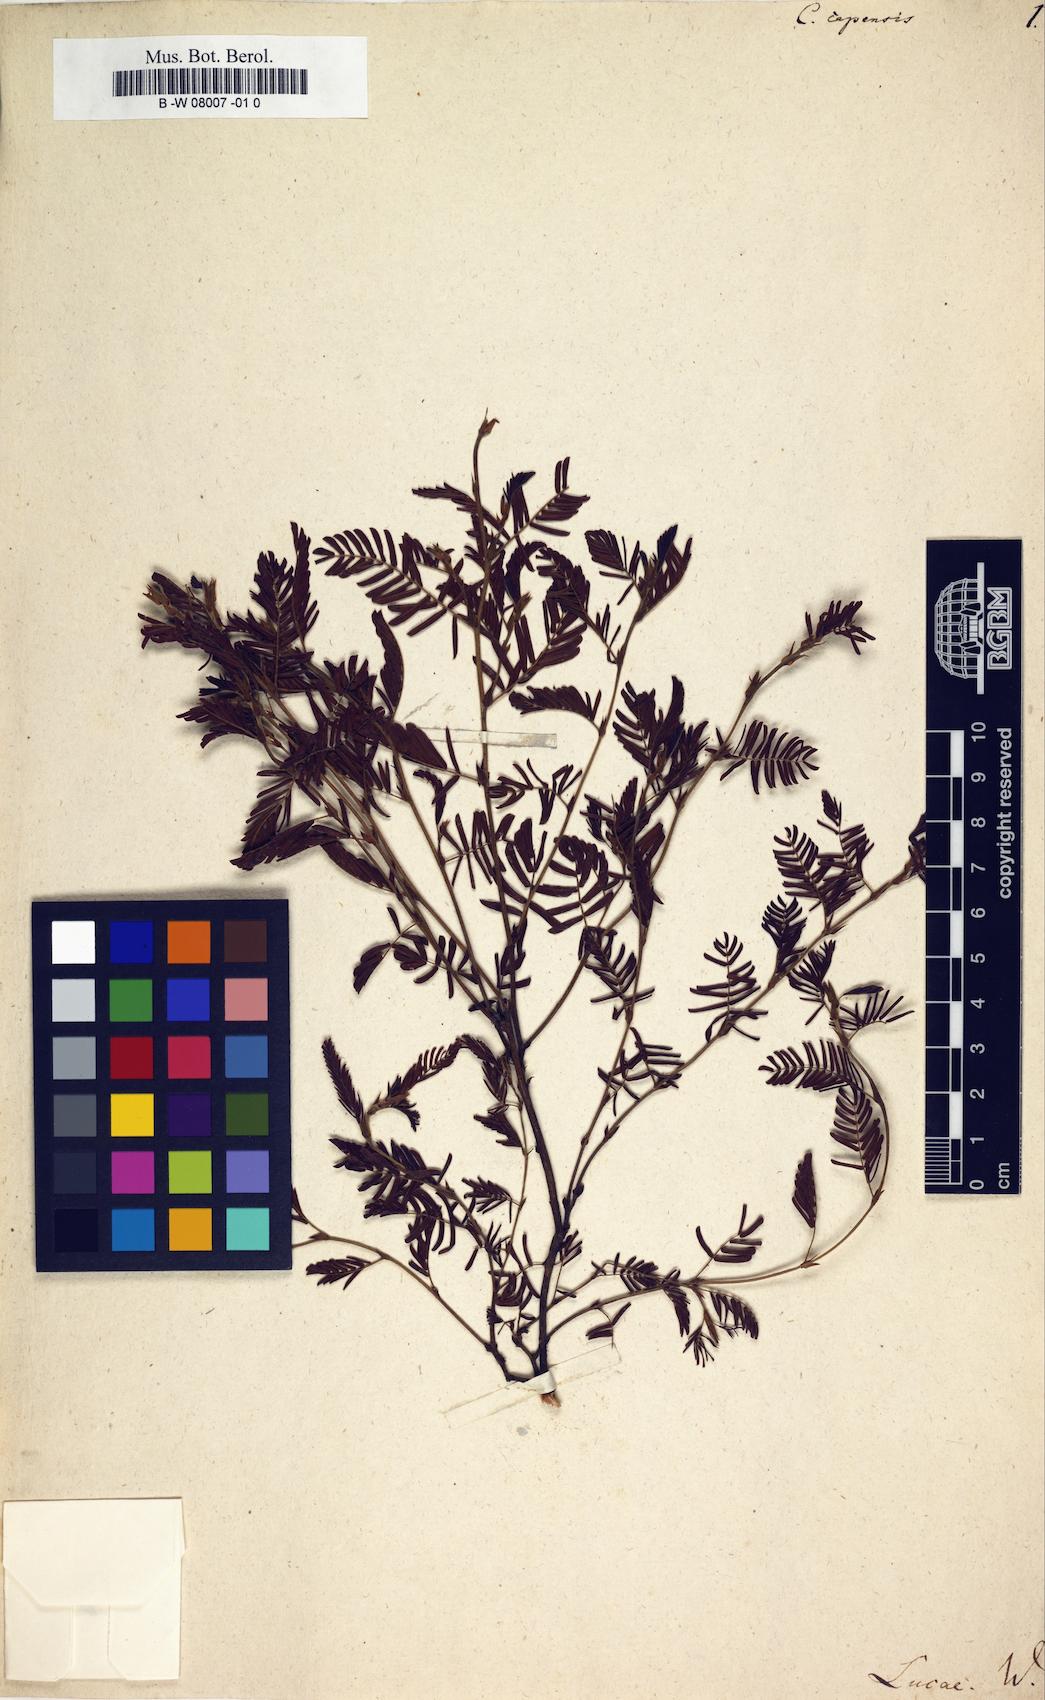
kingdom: Plantae
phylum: Tracheophyta
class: Magnoliopsida
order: Fabales
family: Fabaceae
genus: Chamaecrista
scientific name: Chamaecrista capensis
